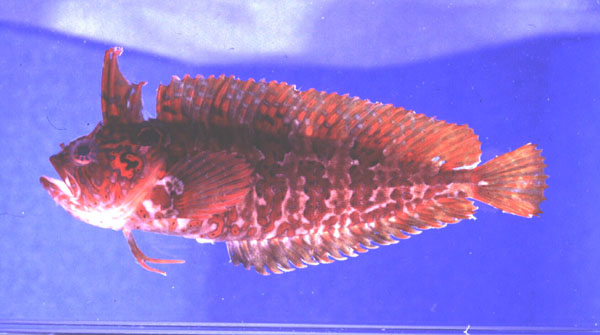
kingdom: Animalia
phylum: Chordata
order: Perciformes
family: Clinidae
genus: Clinus
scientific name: Clinus woodi
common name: Oldman klipfish
